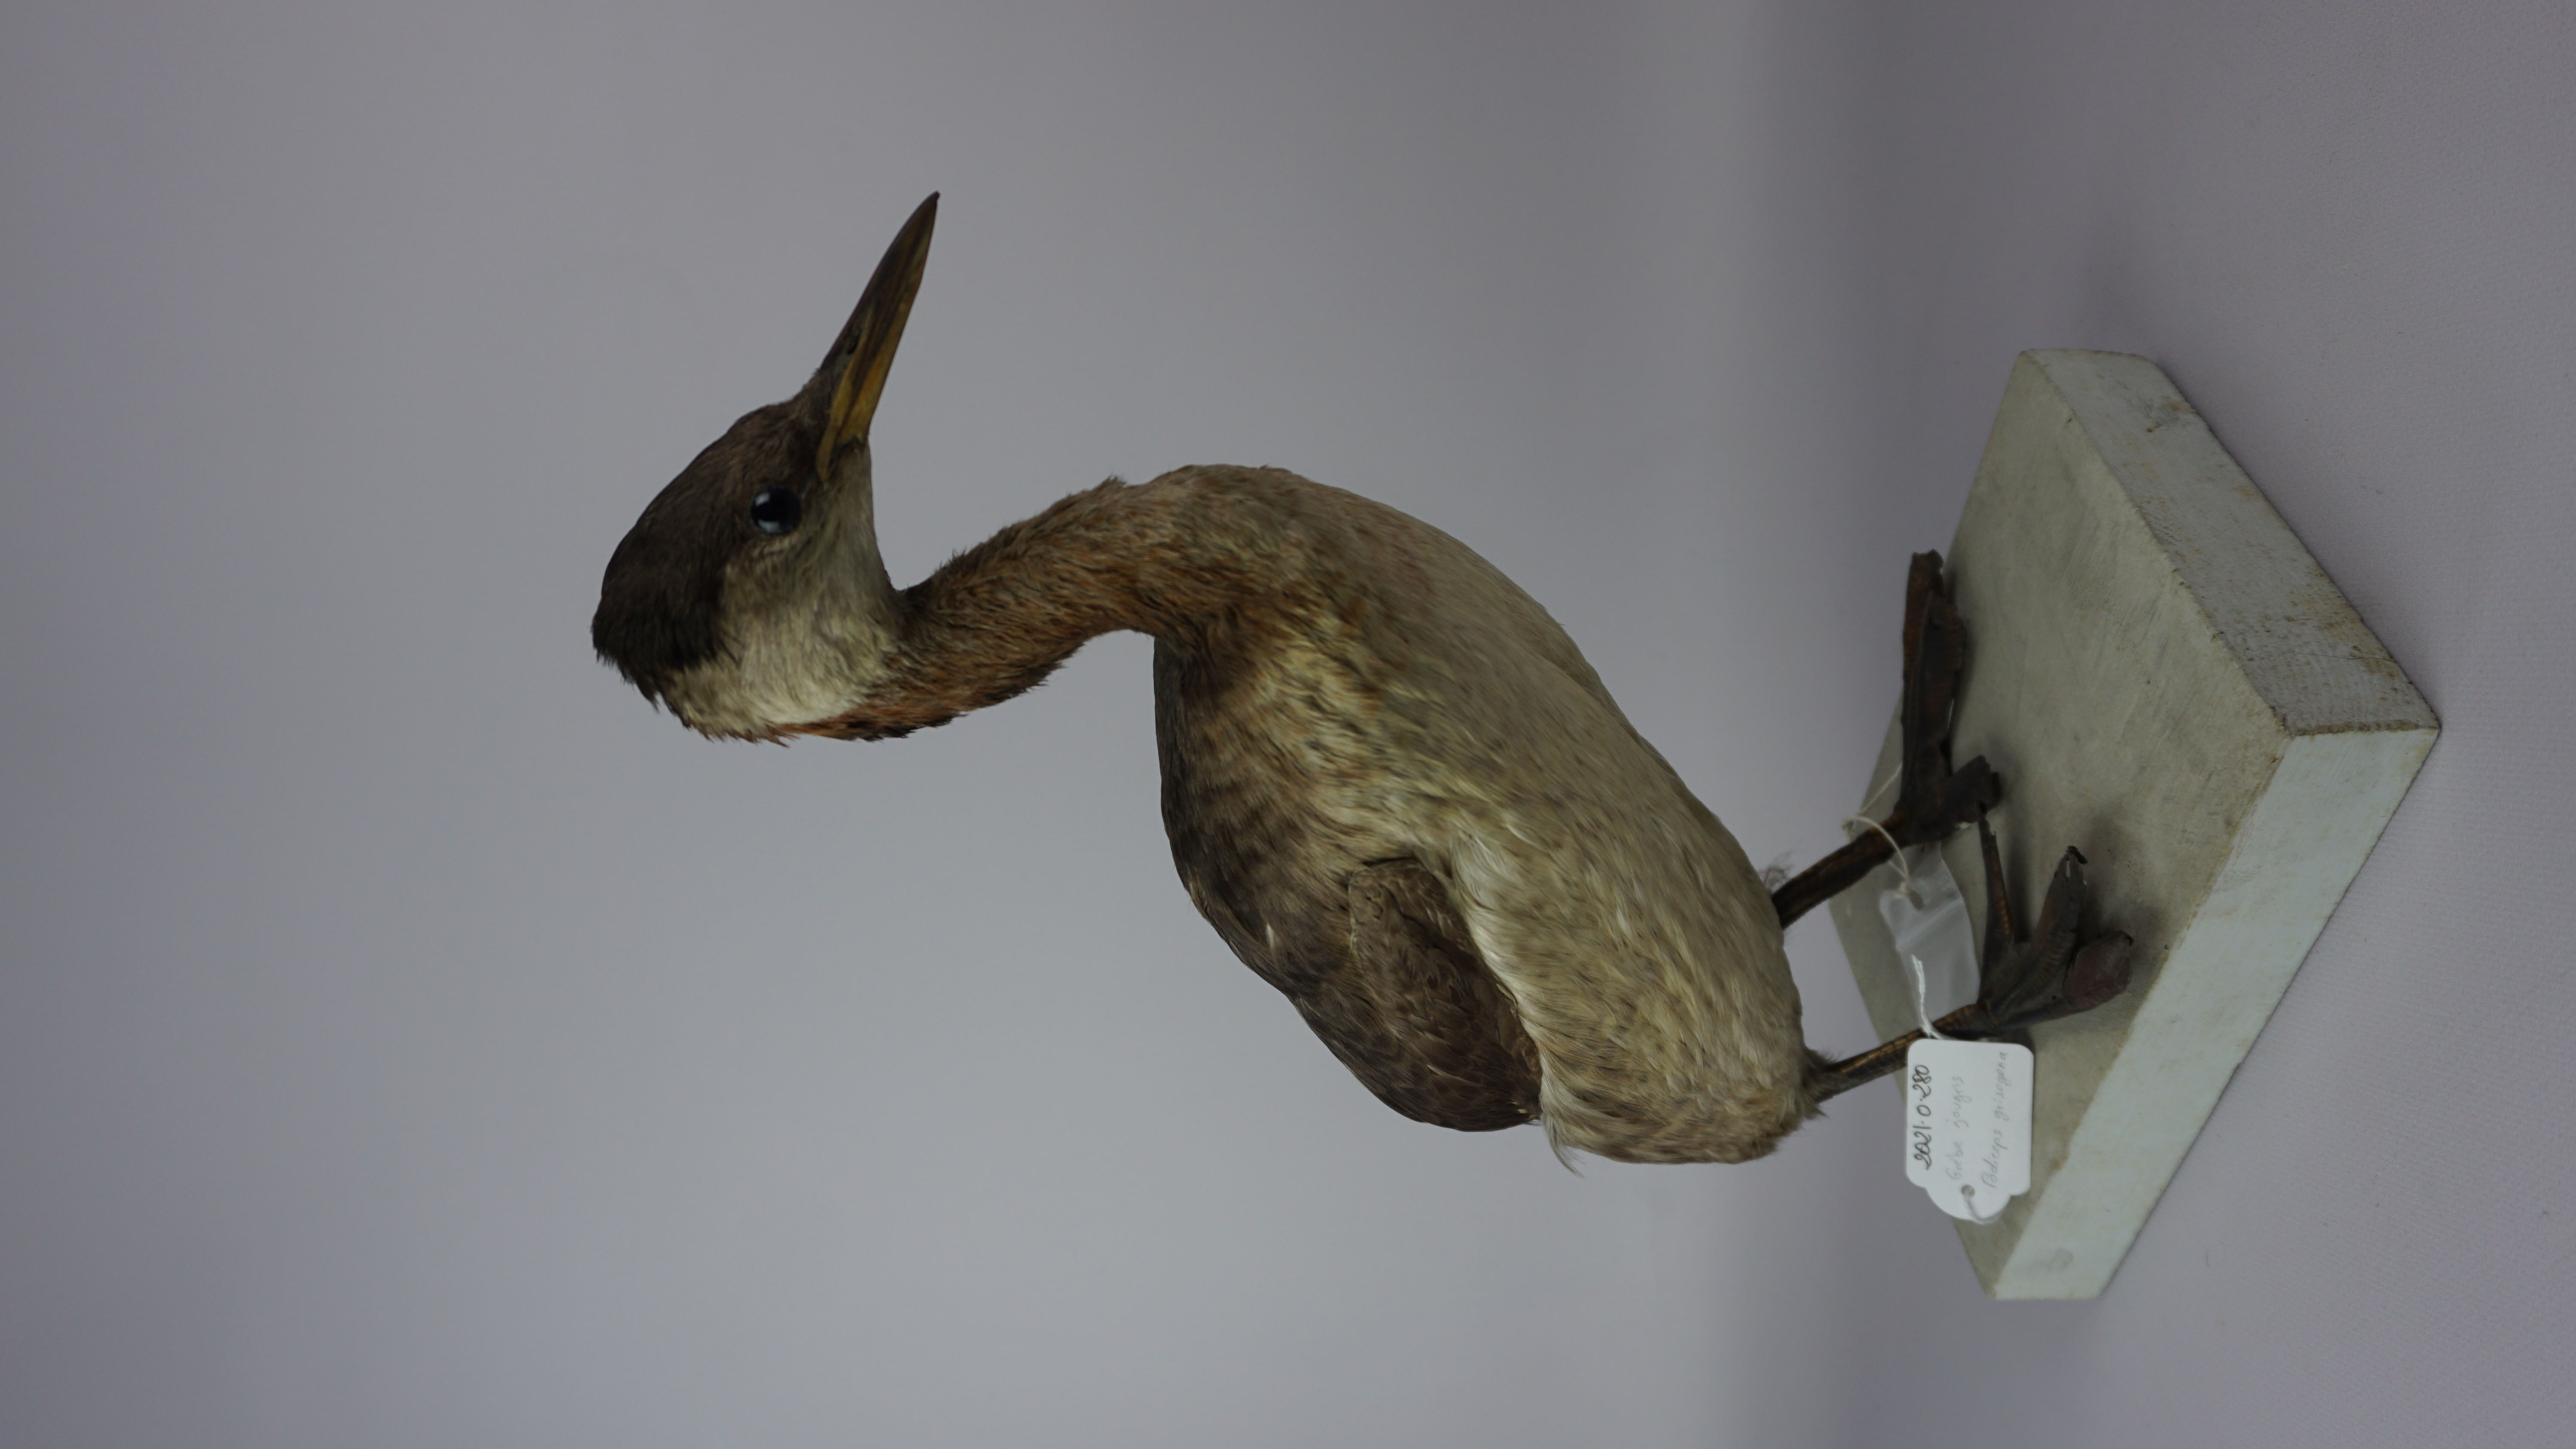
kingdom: Animalia
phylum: Chordata
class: Aves
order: Podicipediformes
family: Podicipedidae
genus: Podiceps
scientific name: Podiceps grisegena
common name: Red-necked grebe
